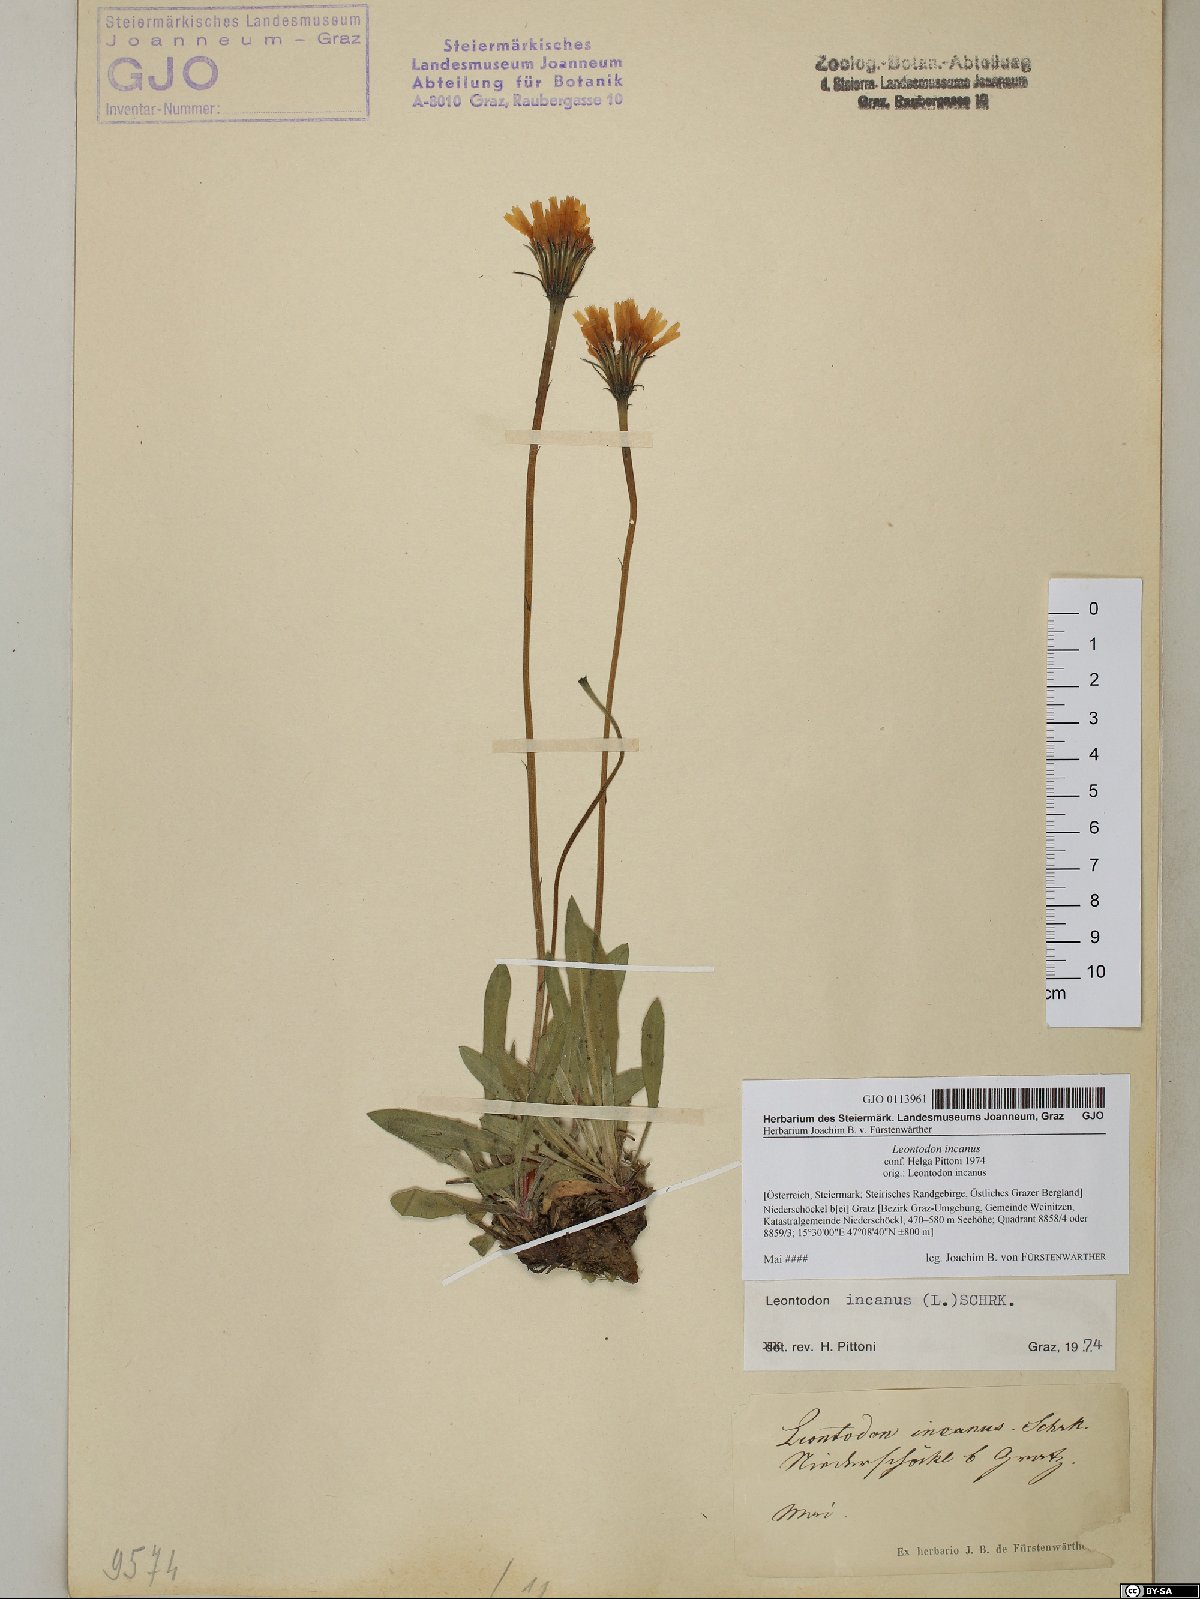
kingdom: Plantae
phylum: Tracheophyta
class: Magnoliopsida
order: Asterales
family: Asteraceae
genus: Leontodon
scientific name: Leontodon incanus
